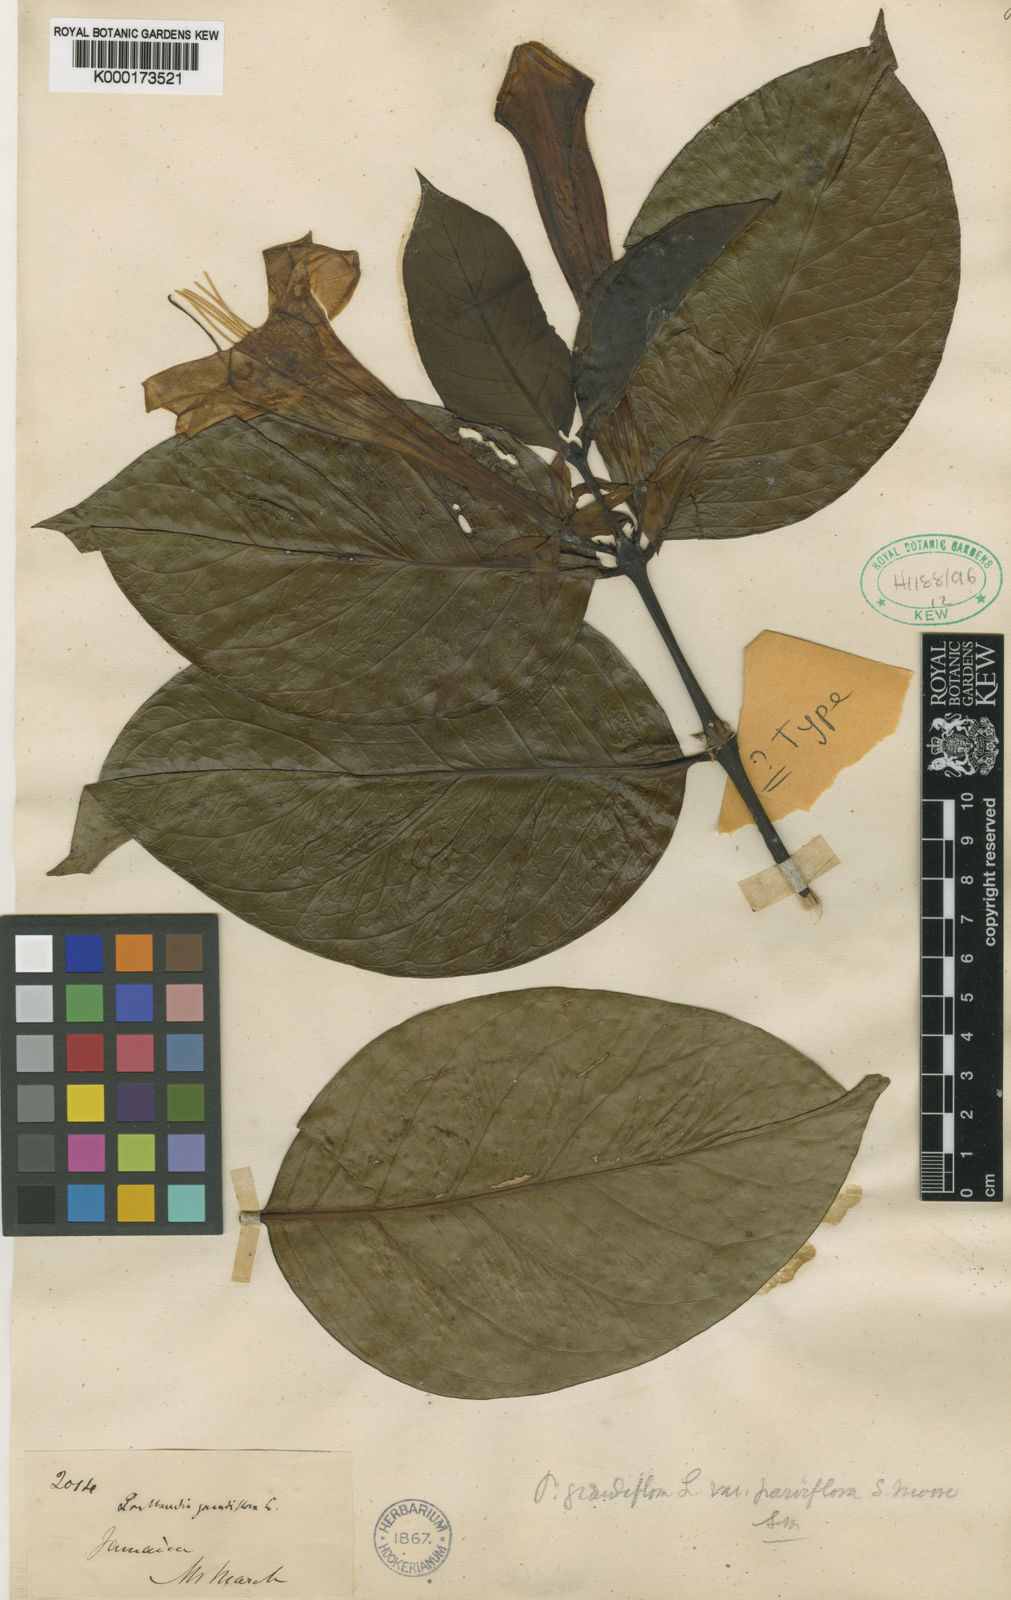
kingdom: Plantae
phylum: Tracheophyta
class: Magnoliopsida
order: Gentianales
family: Rubiaceae
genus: Portlandia
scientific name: Portlandia grandiflora
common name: Bellflower
